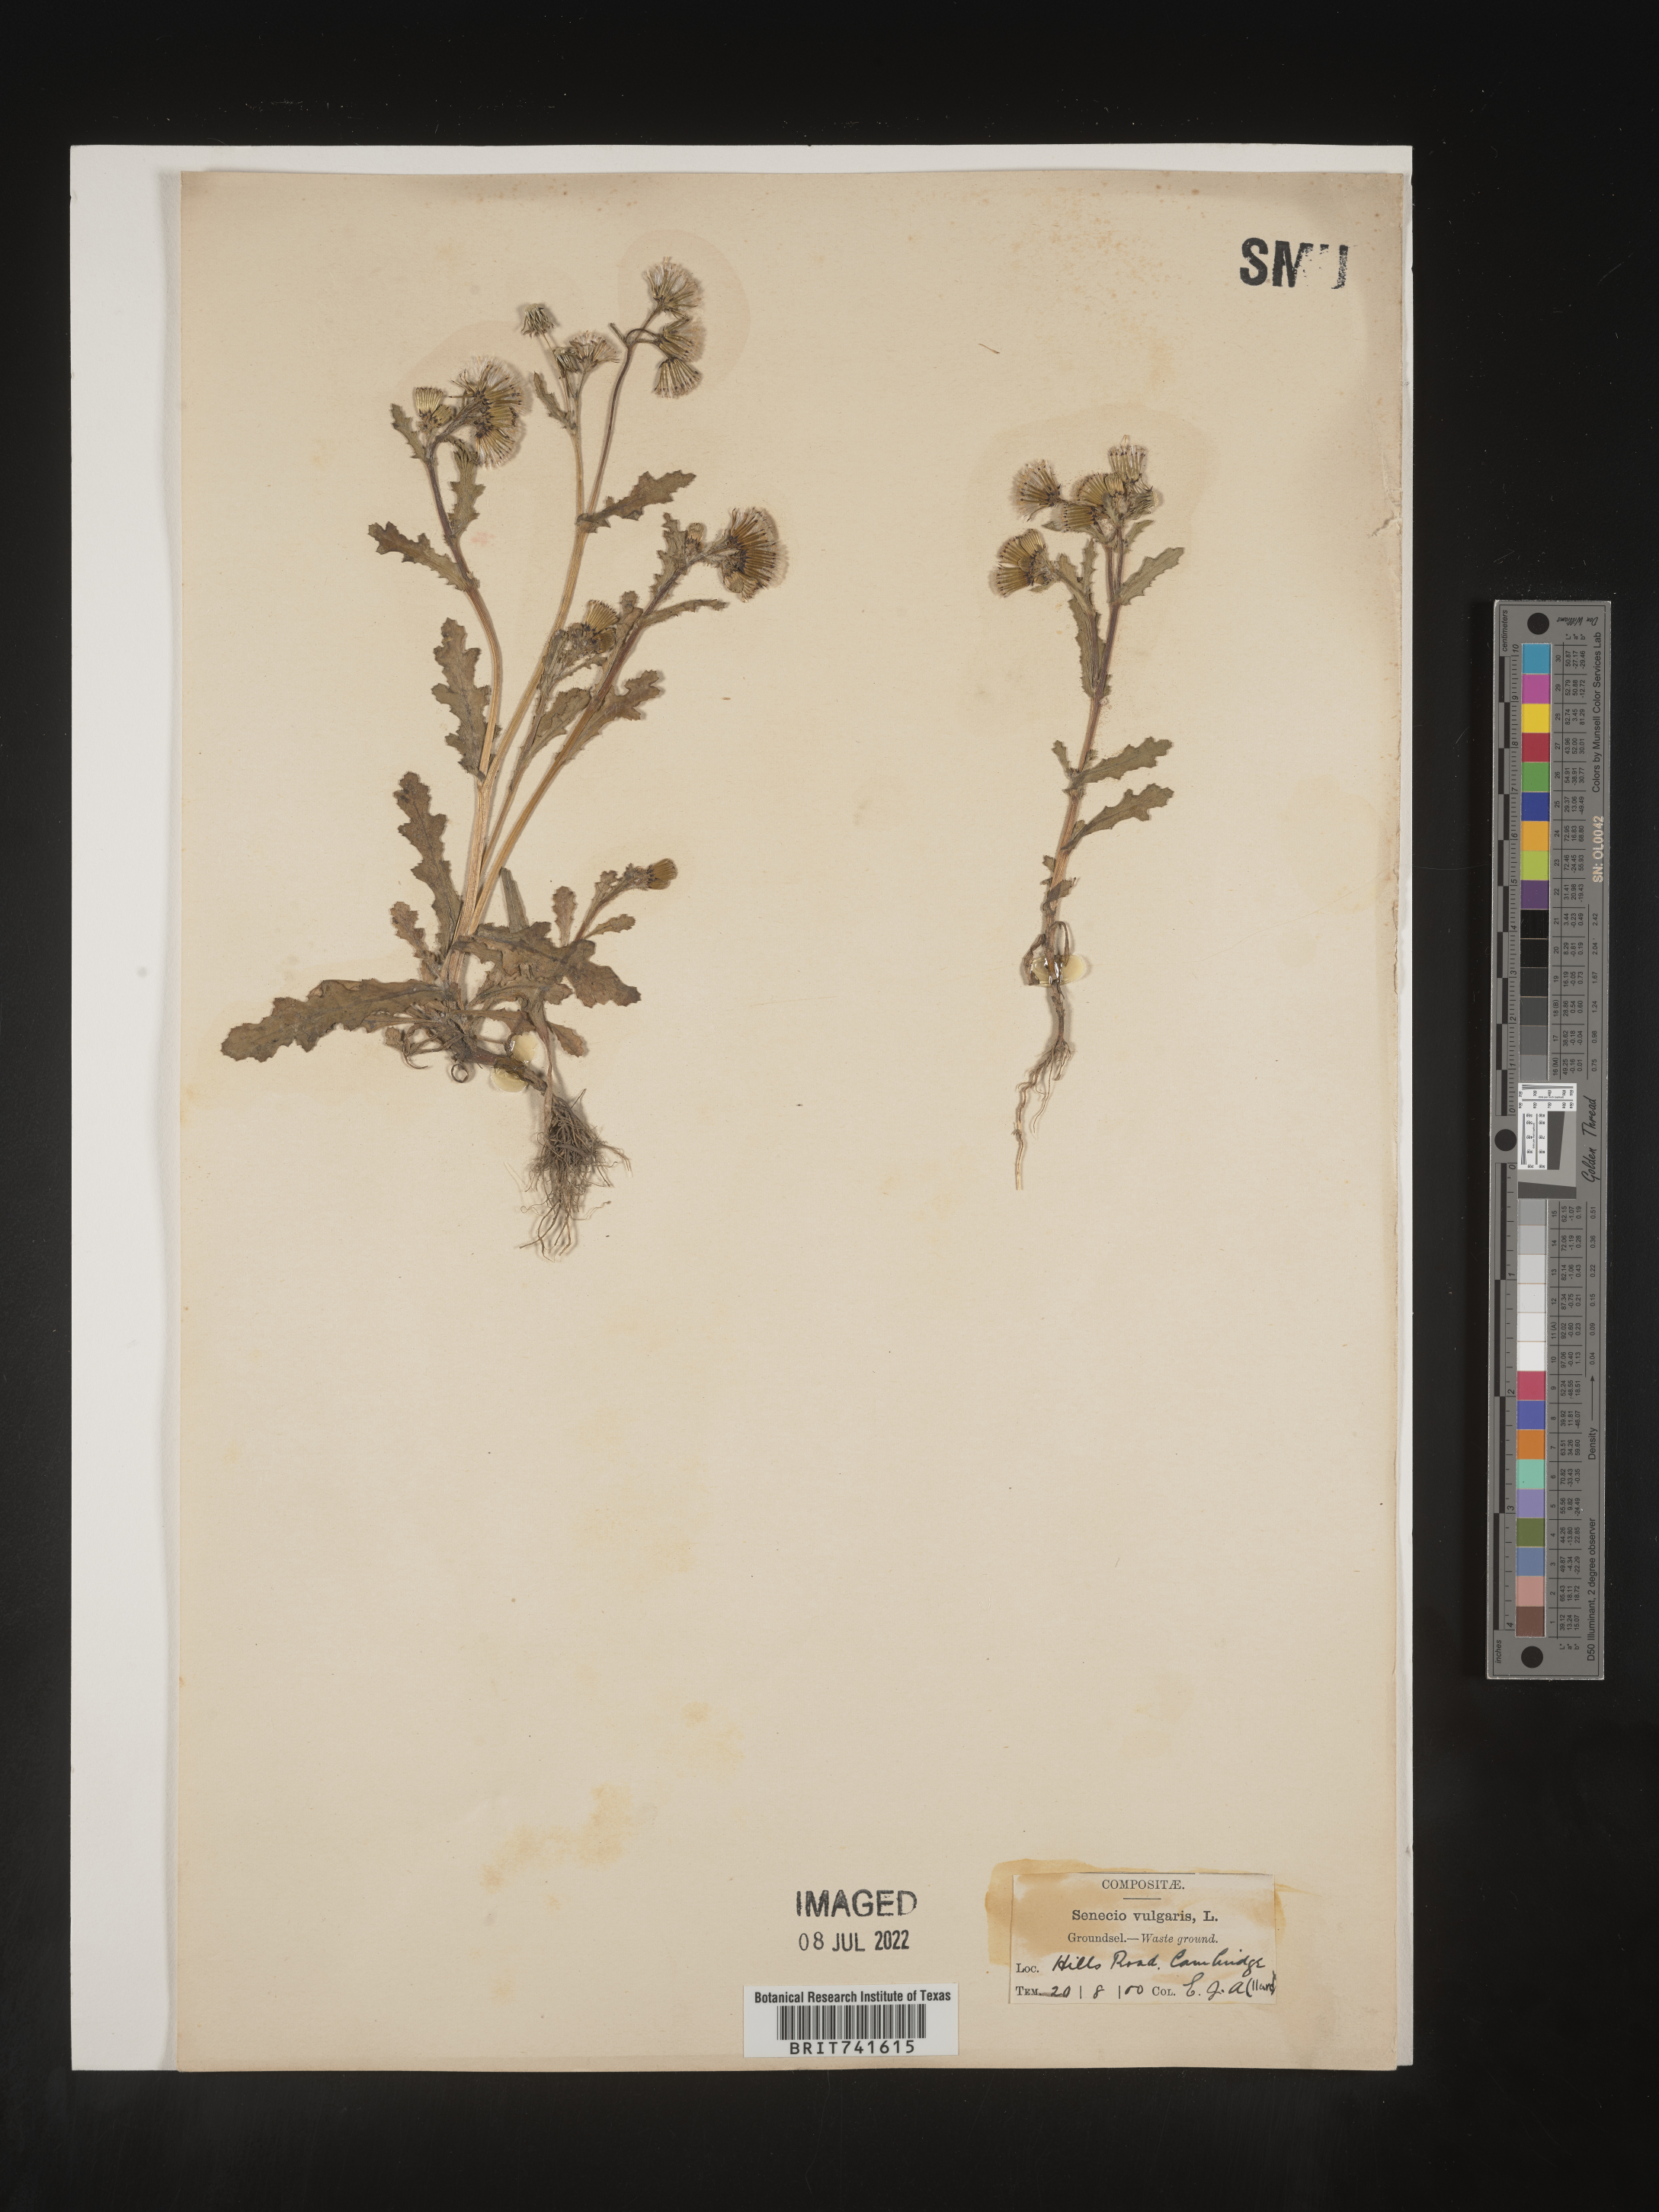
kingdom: Plantae
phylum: Tracheophyta
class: Magnoliopsida
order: Asterales
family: Asteraceae
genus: Senecio
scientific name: Senecio
